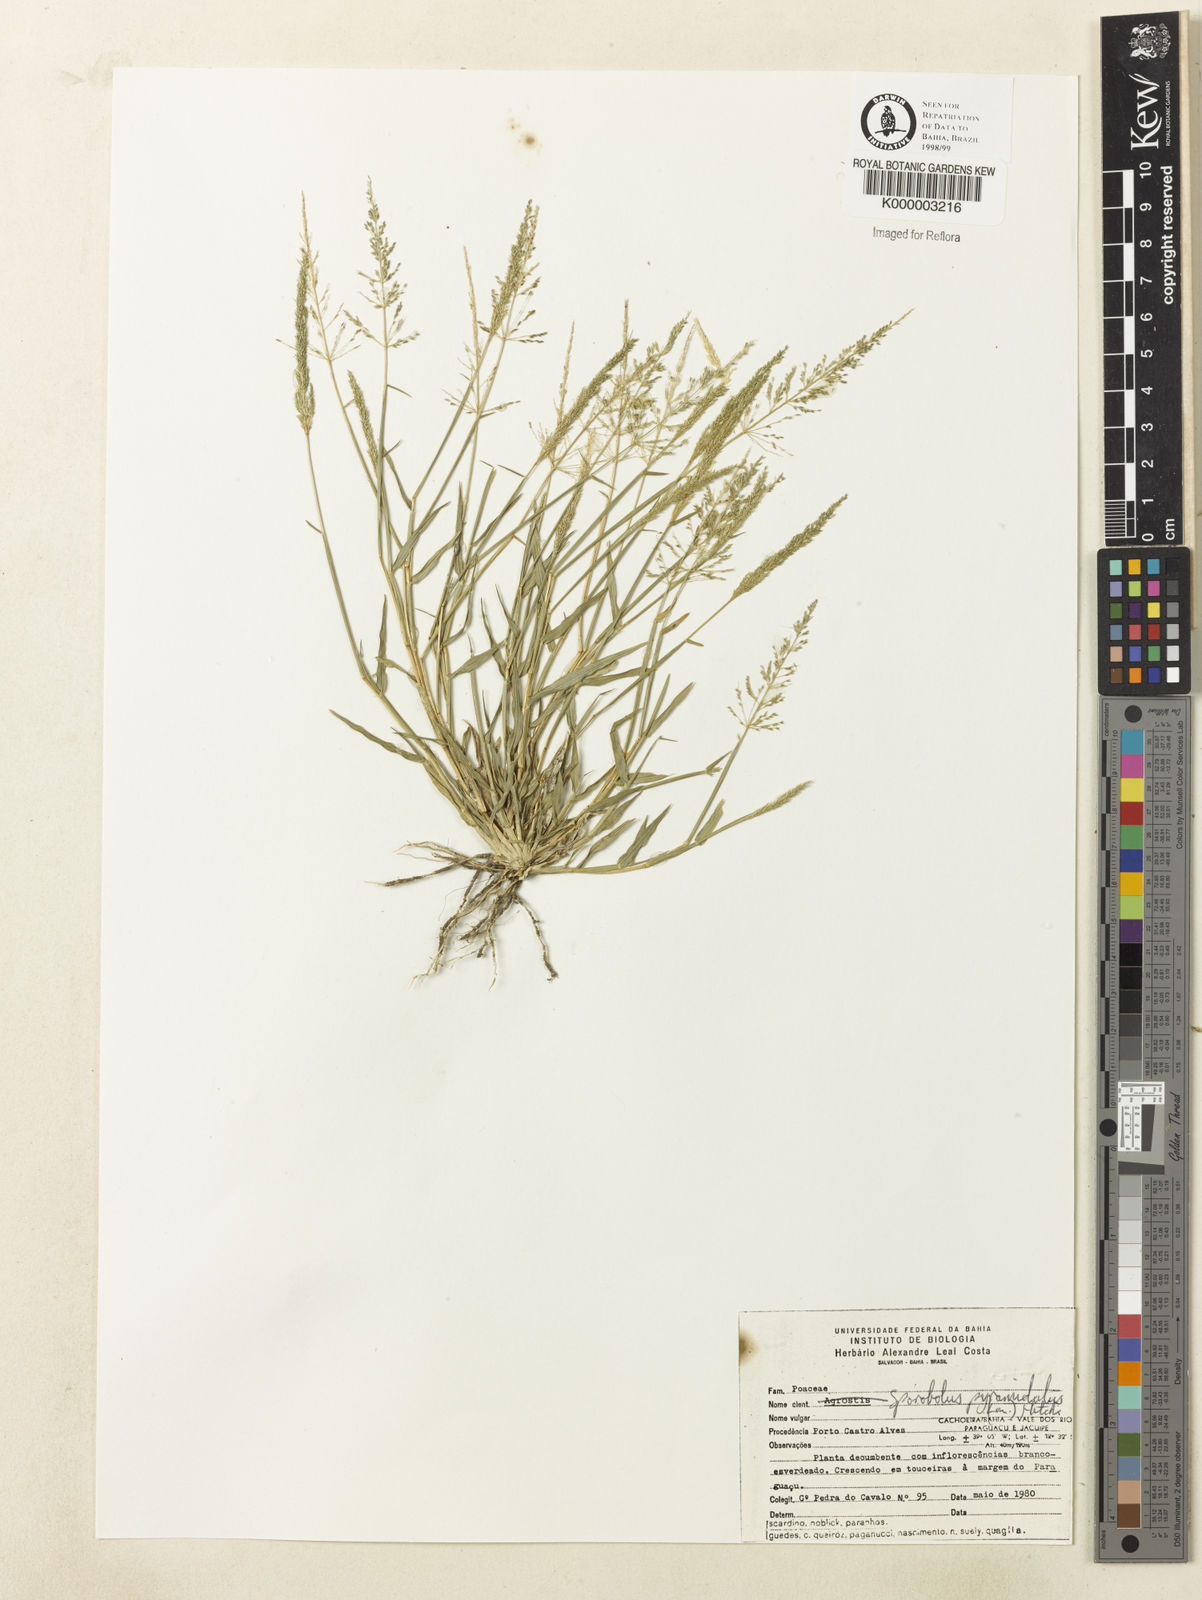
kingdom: Plantae
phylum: Tracheophyta
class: Liliopsida
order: Poales
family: Poaceae
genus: Sporobolus
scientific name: Sporobolus pyramidatus
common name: Whorled dropseed
